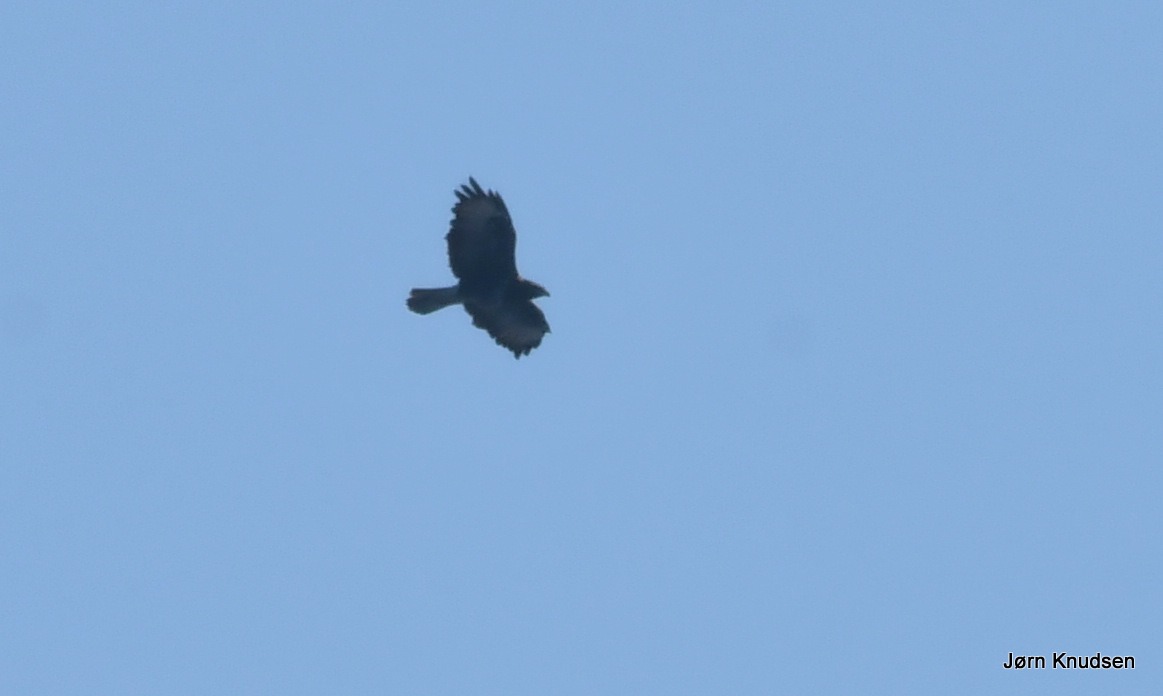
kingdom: Animalia
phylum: Chordata
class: Aves
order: Accipitriformes
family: Accipitridae
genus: Buteo
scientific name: Buteo buteo
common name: Musvåge
